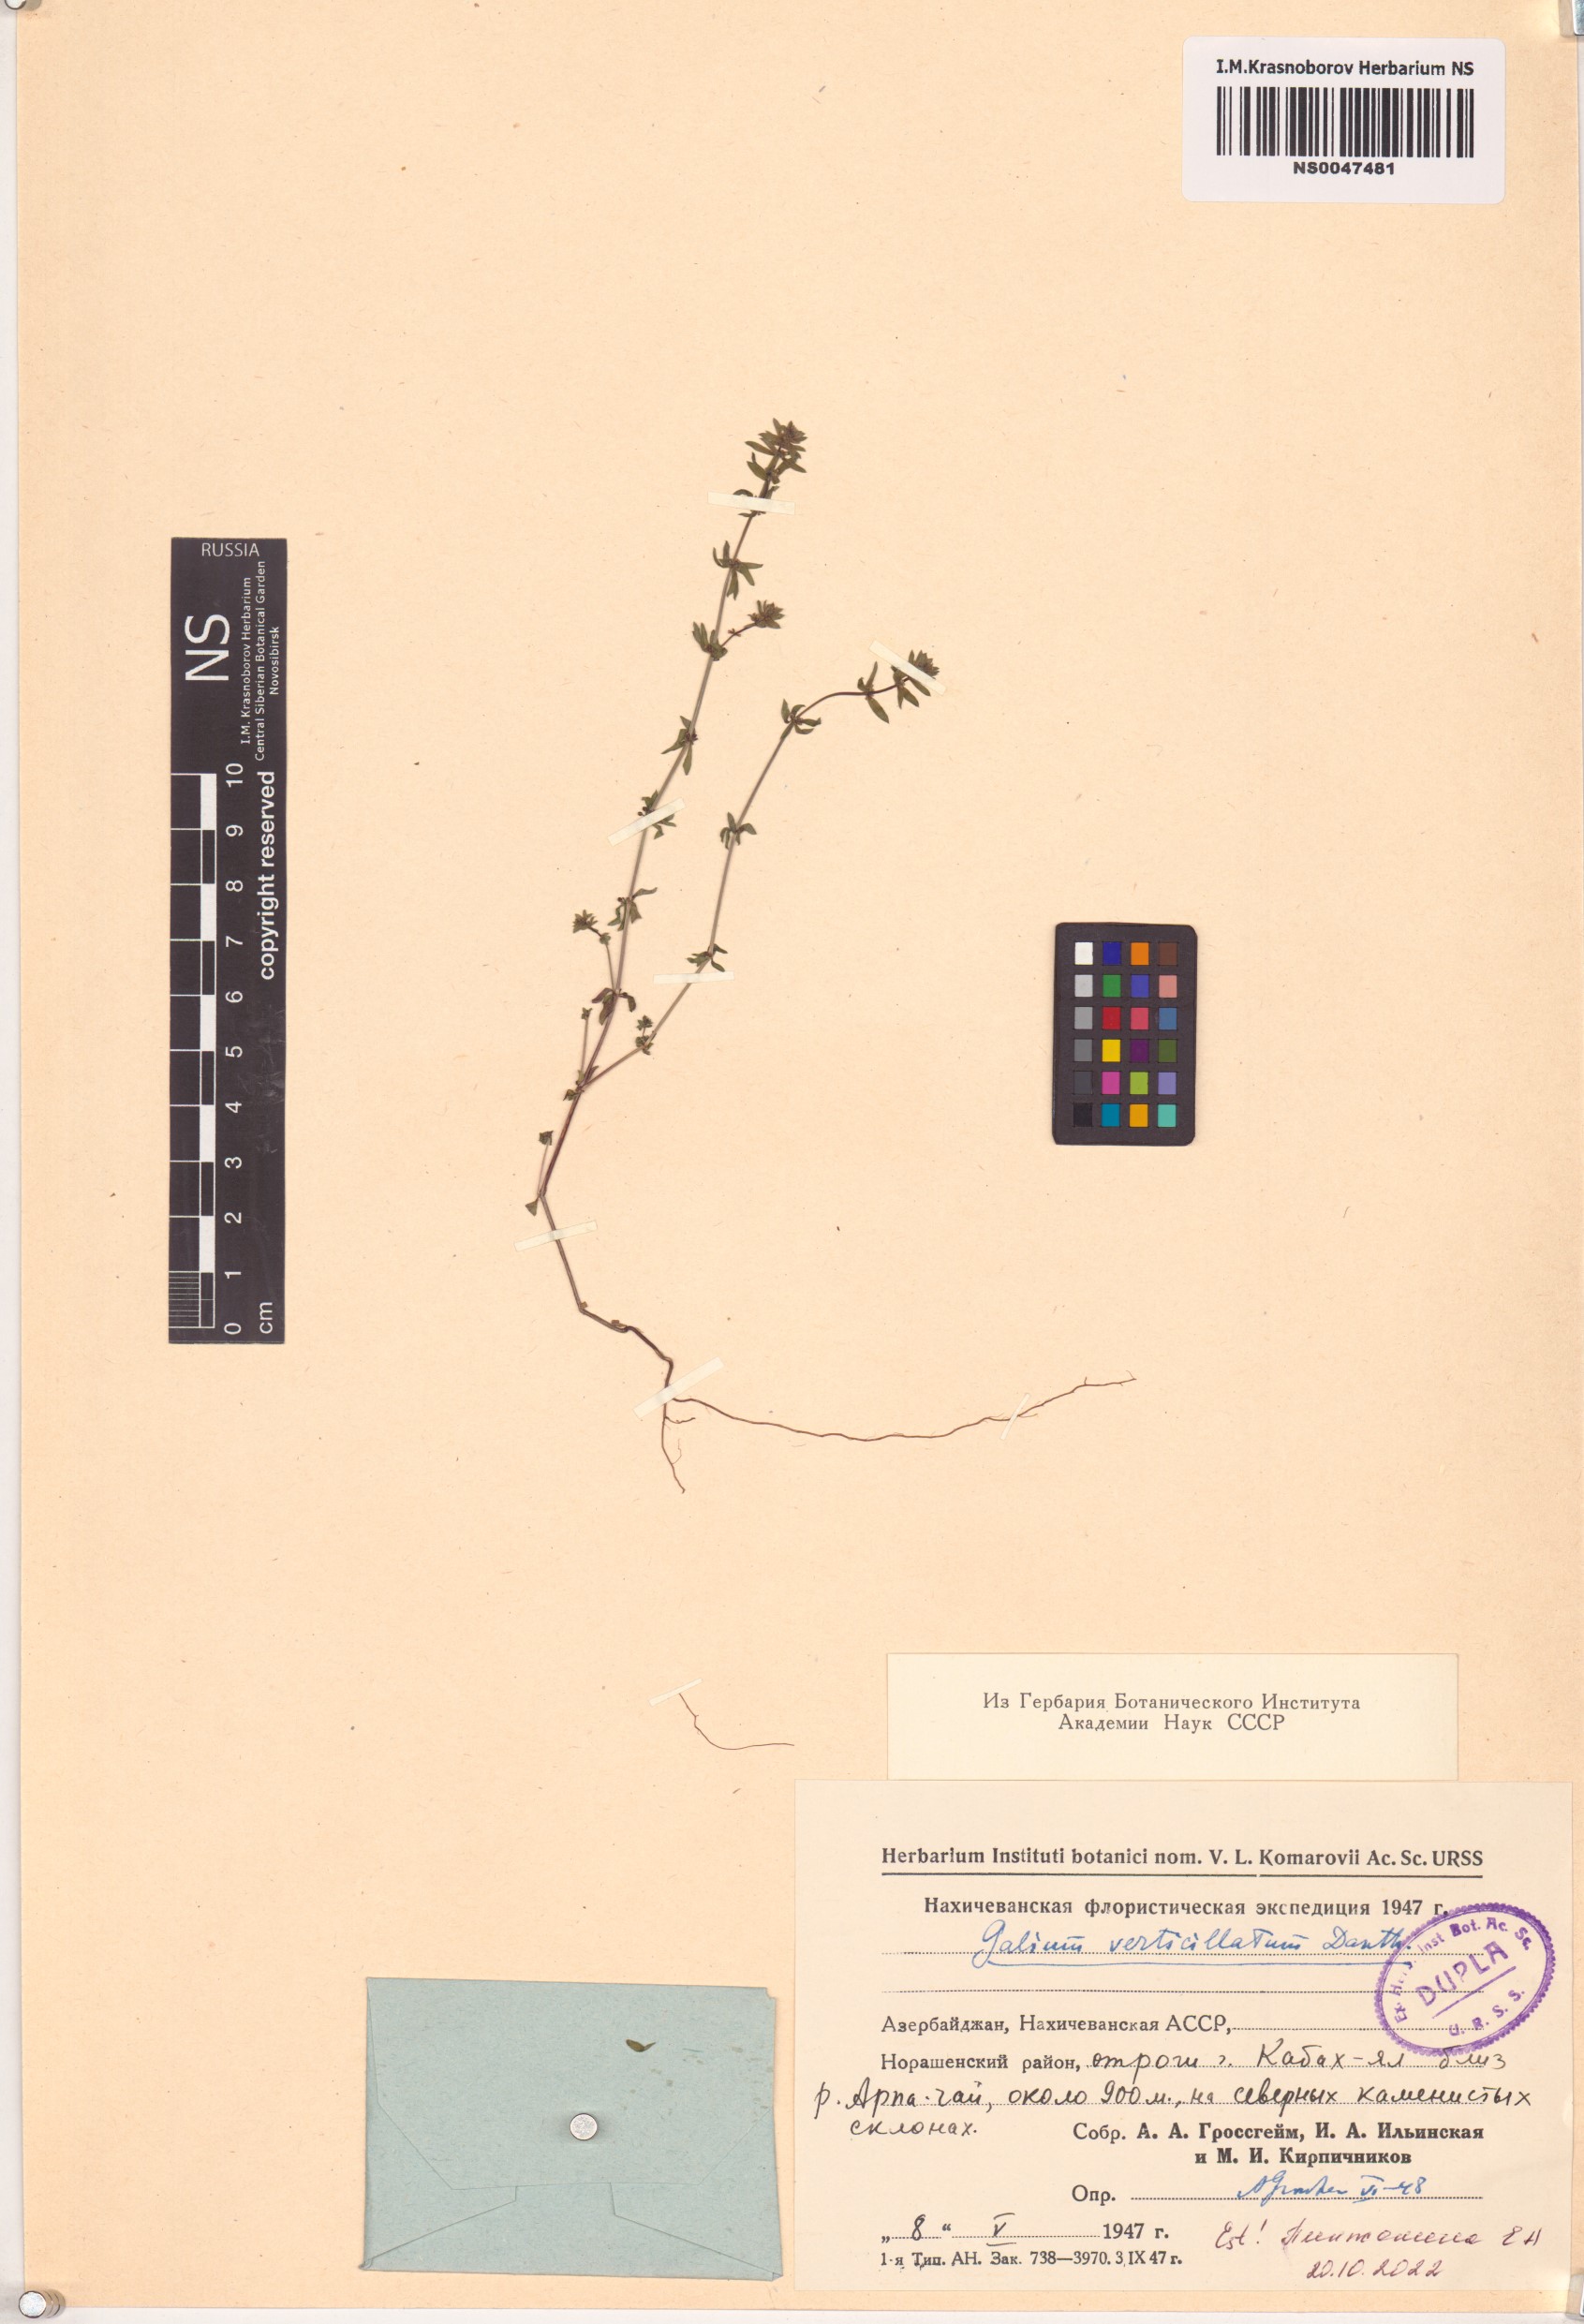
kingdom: Plantae
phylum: Tracheophyta
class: Magnoliopsida
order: Gentianales
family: Rubiaceae
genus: Galium
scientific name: Galium verticillatum
